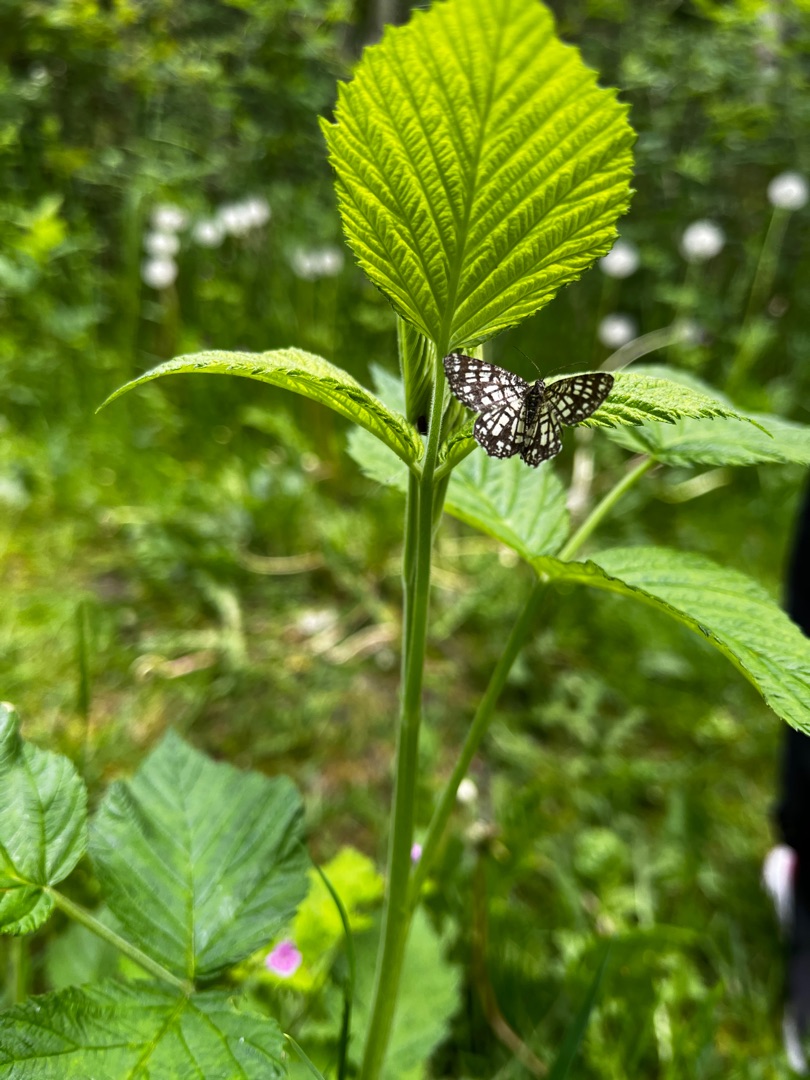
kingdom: Animalia
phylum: Arthropoda
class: Insecta
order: Lepidoptera
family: Geometridae
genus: Chiasmia
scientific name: Chiasmia clathrata
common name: Kløvermåler
